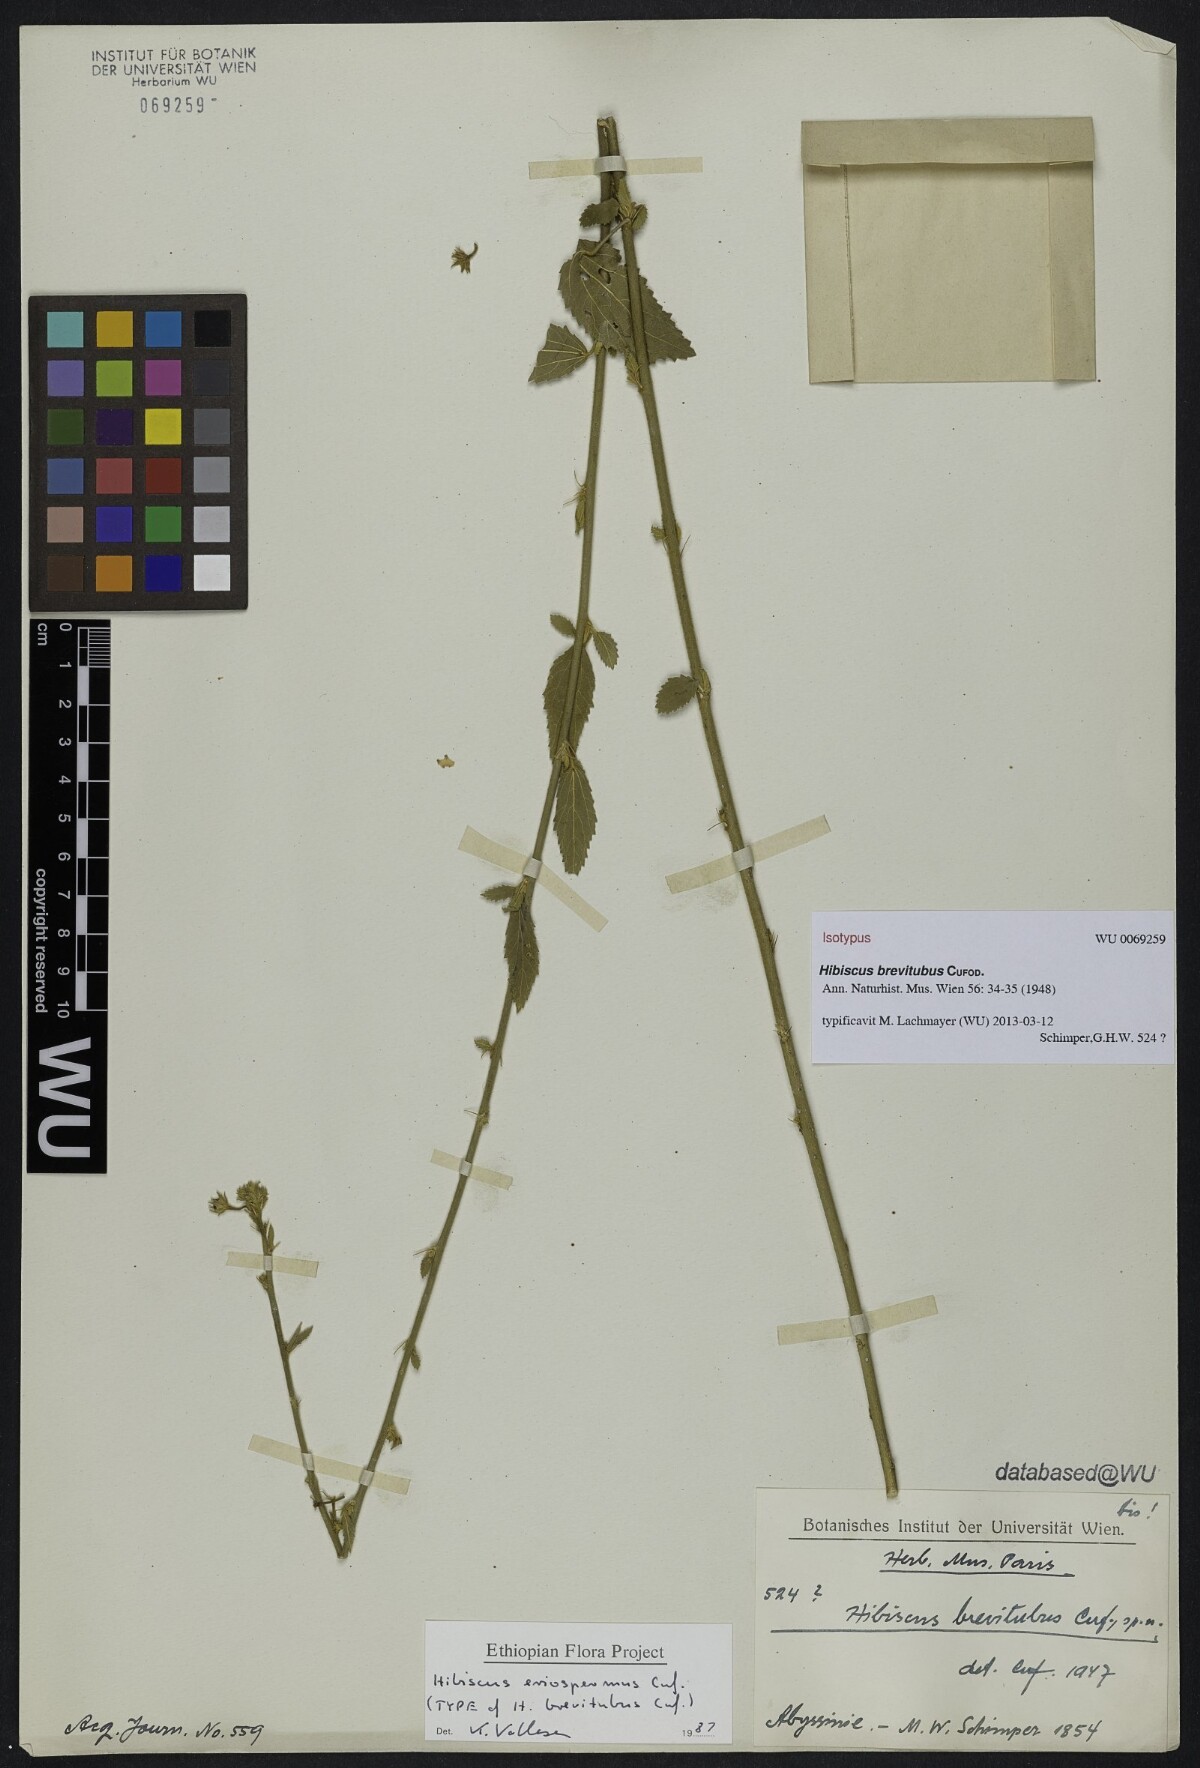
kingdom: Plantae
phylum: Tracheophyta
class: Magnoliopsida
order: Malvales
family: Malvaceae
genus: Hibiscus
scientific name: Hibiscus eriospermus
